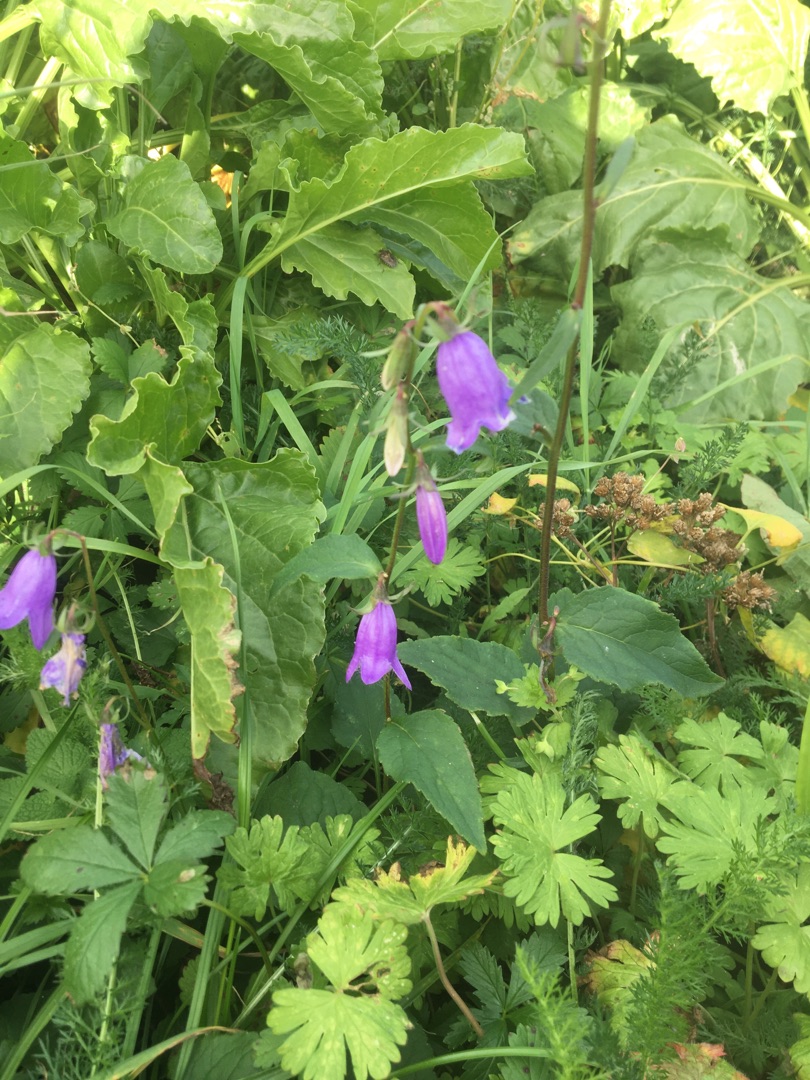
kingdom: Plantae
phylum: Tracheophyta
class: Magnoliopsida
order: Asterales
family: Campanulaceae
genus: Campanula
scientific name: Campanula rapunculoides
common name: Ensidig klokke
